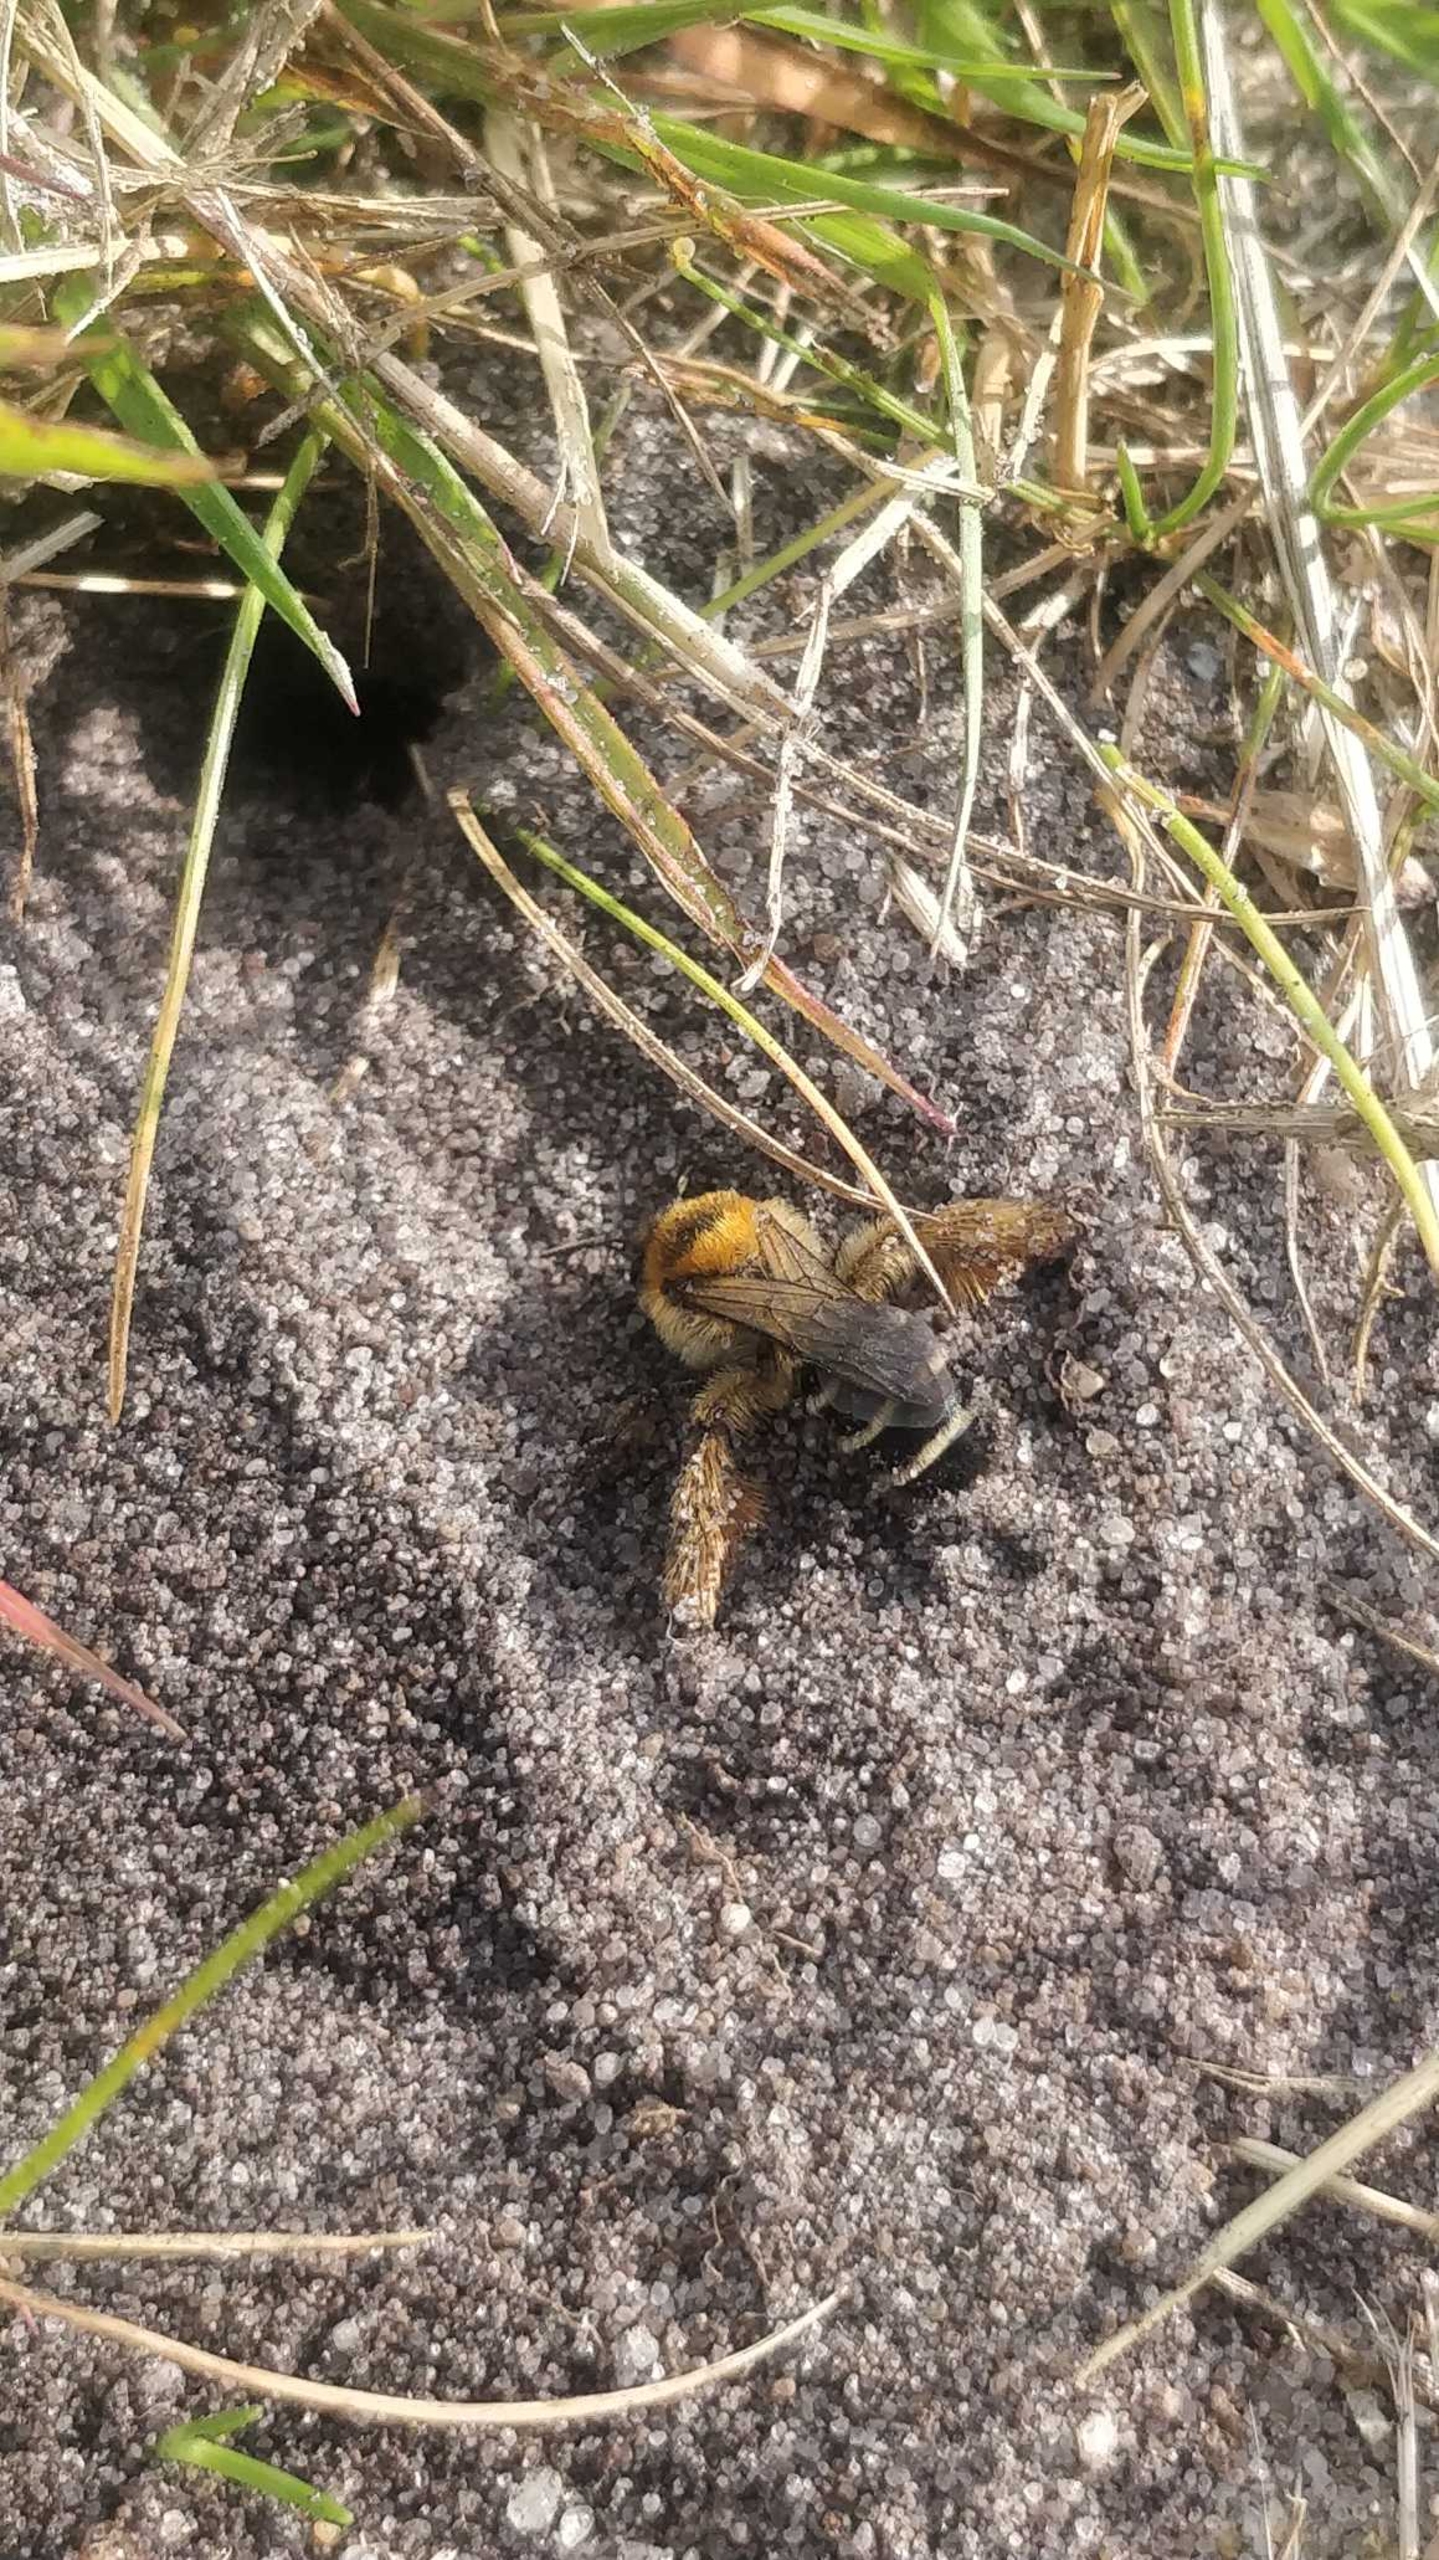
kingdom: Animalia
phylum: Arthropoda
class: Insecta
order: Hymenoptera
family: Melittidae
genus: Dasypoda
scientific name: Dasypoda hirtipes
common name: Pragtbuksebi
